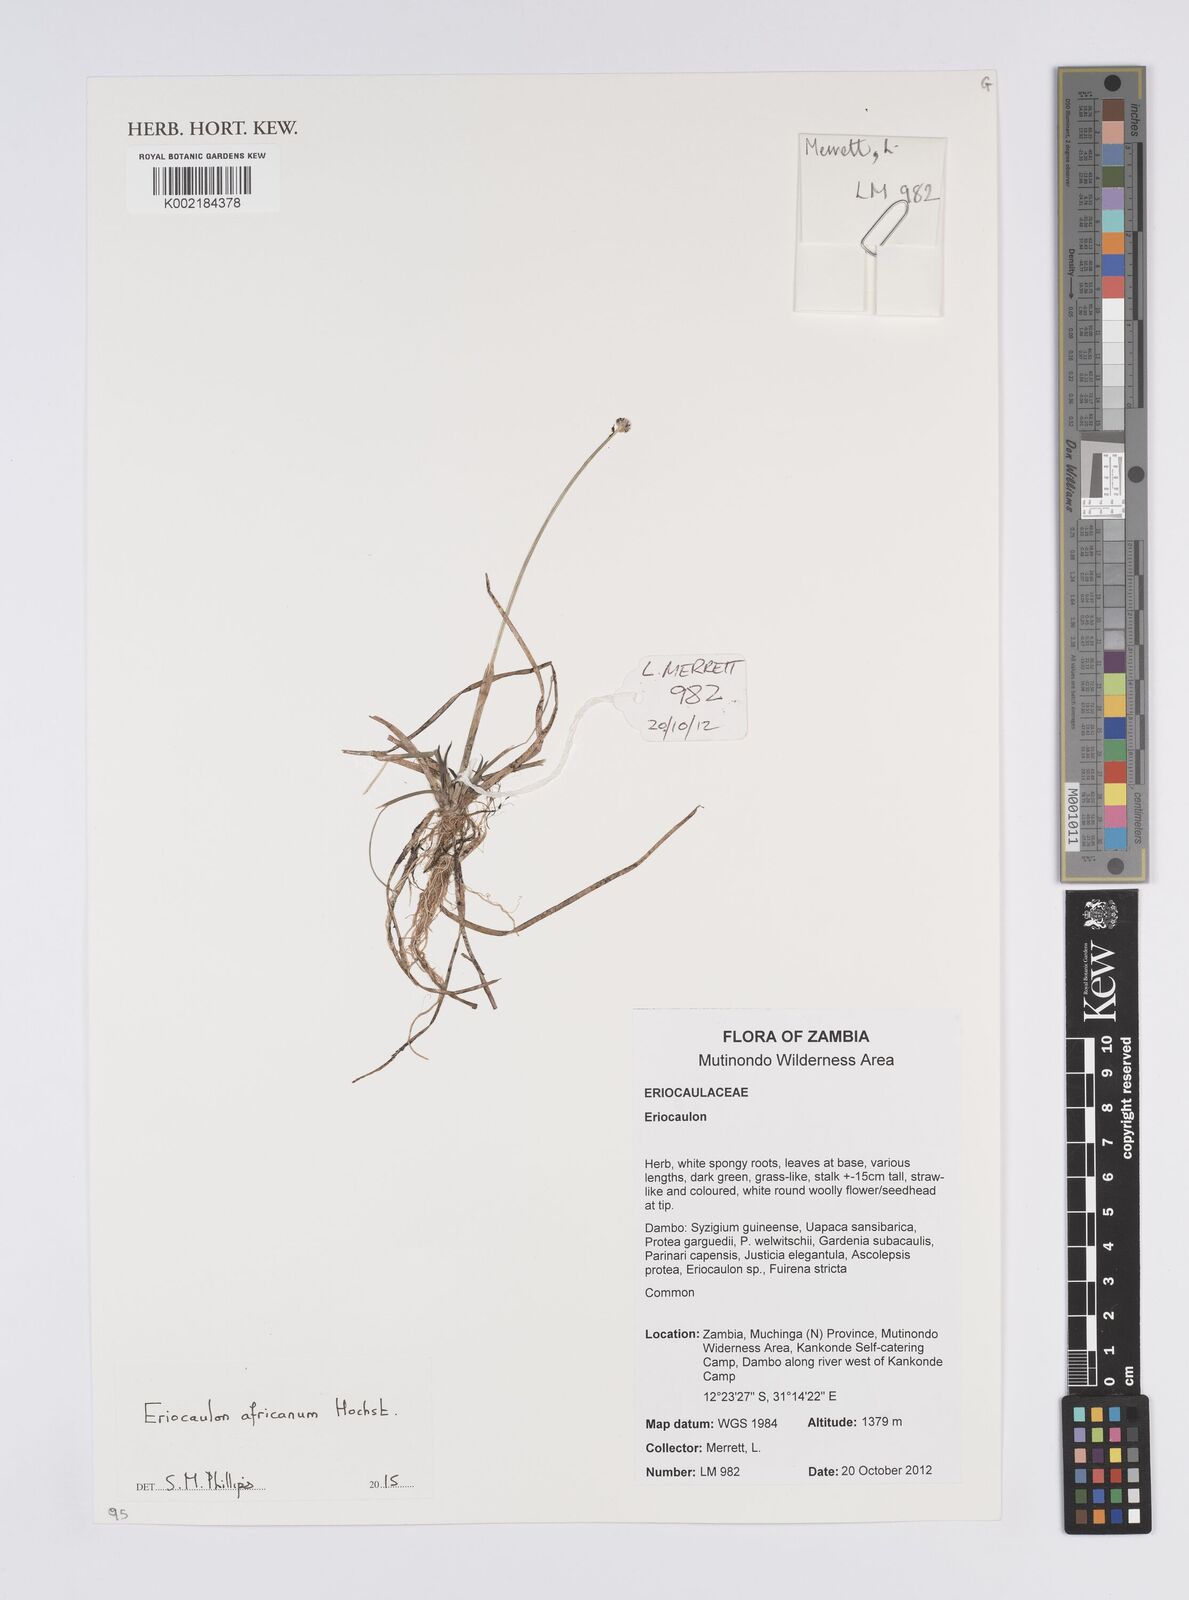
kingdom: Plantae
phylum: Tracheophyta
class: Liliopsida
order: Poales
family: Eriocaulaceae
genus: Eriocaulon
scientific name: Eriocaulon africanum
